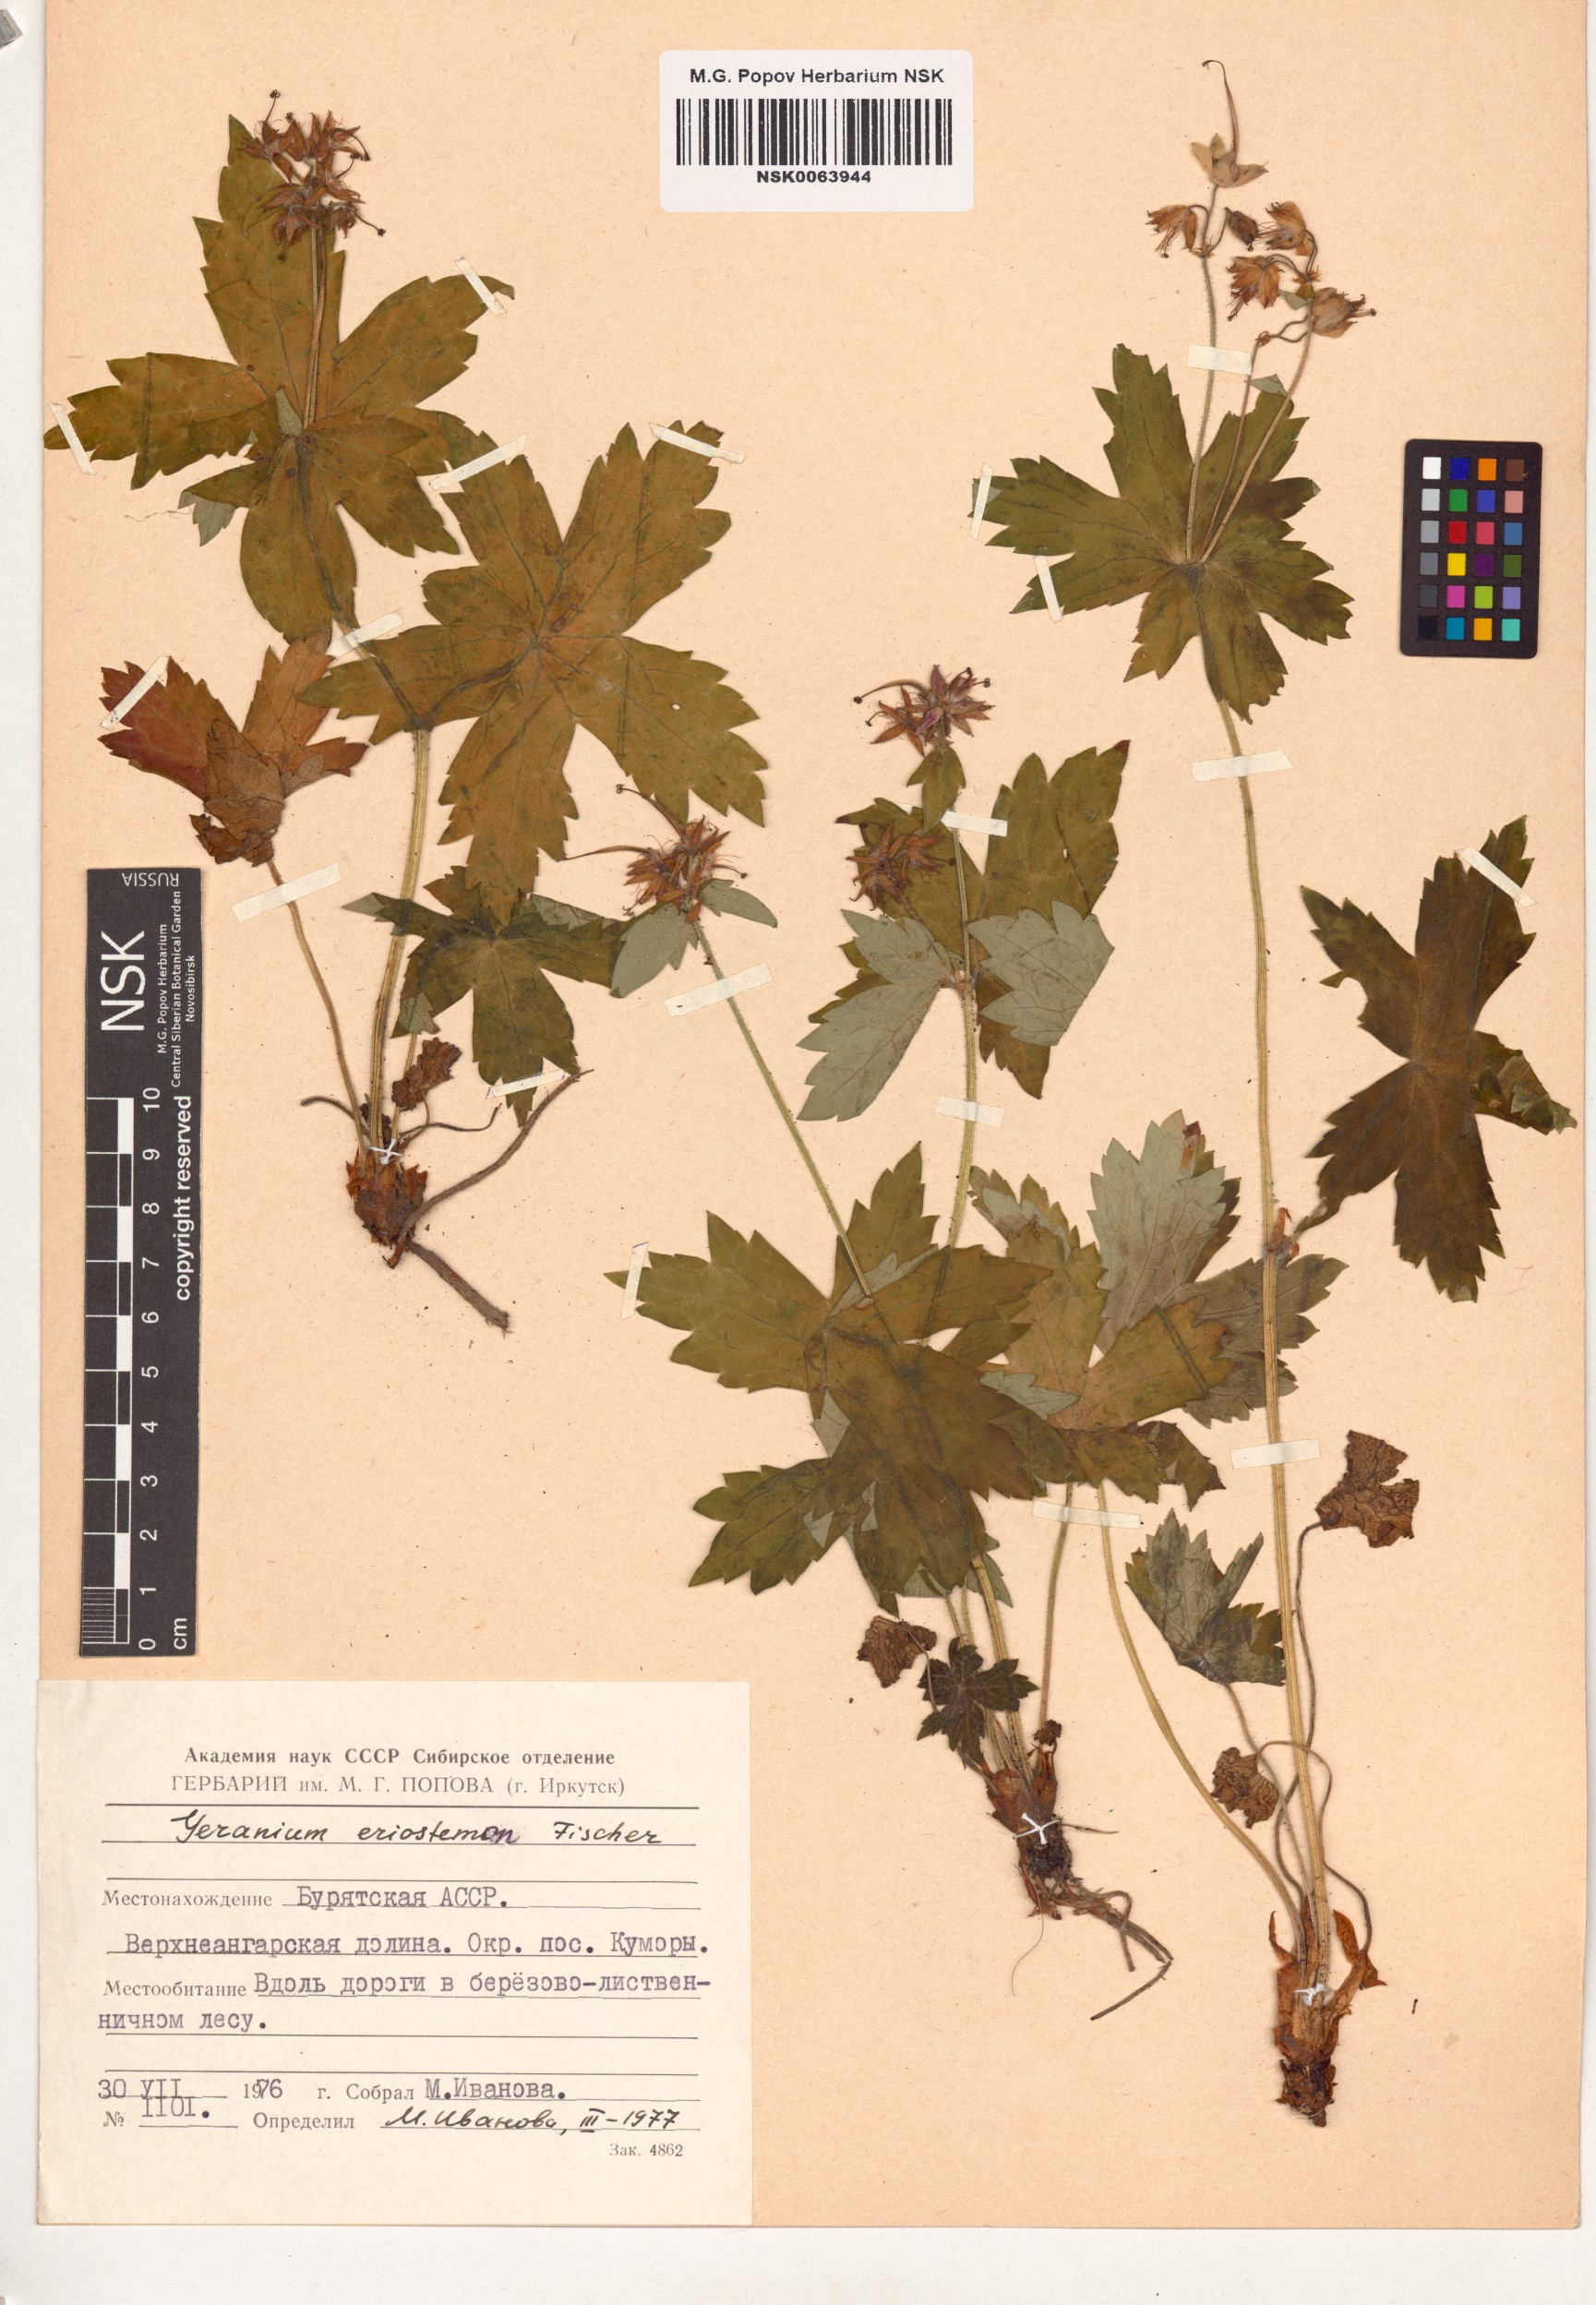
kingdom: Plantae
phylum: Tracheophyta
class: Magnoliopsida
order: Geraniales
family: Geraniaceae
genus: Geranium
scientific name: Geranium platyanthum
